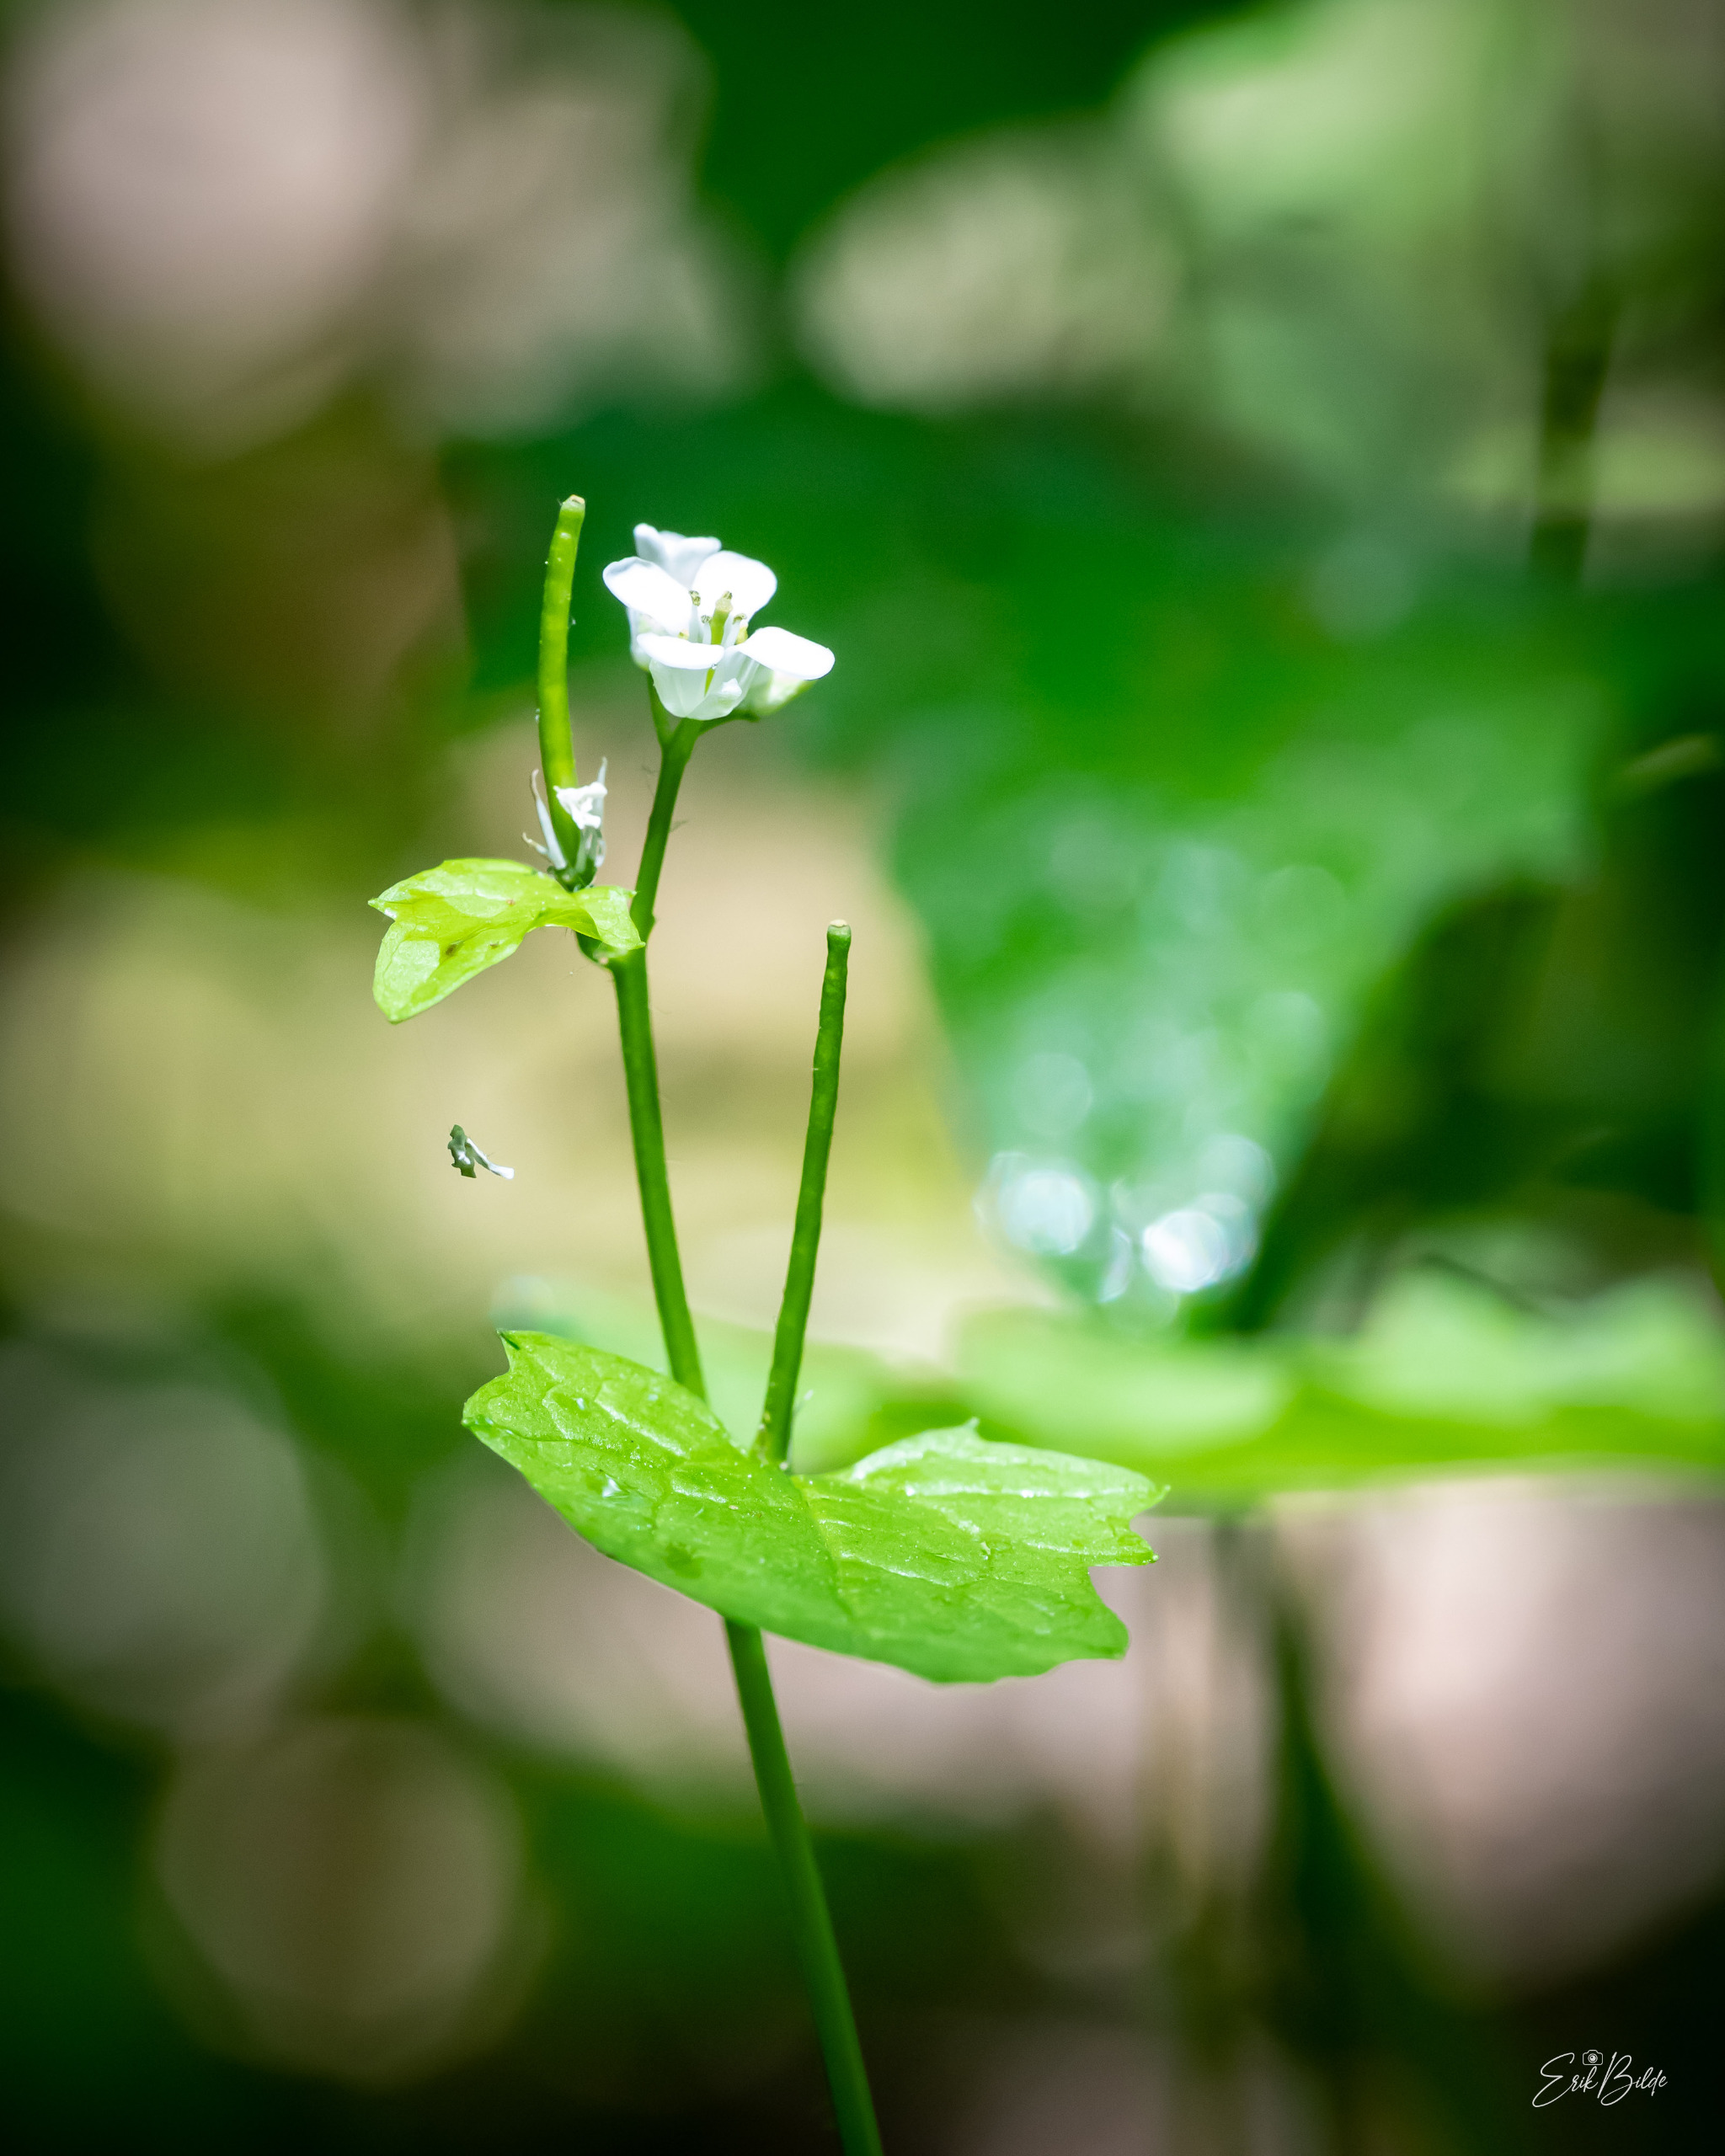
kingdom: Plantae
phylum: Tracheophyta
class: Magnoliopsida
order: Brassicales
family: Brassicaceae
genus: Alliaria
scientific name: Alliaria petiolata
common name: Løgkarse
